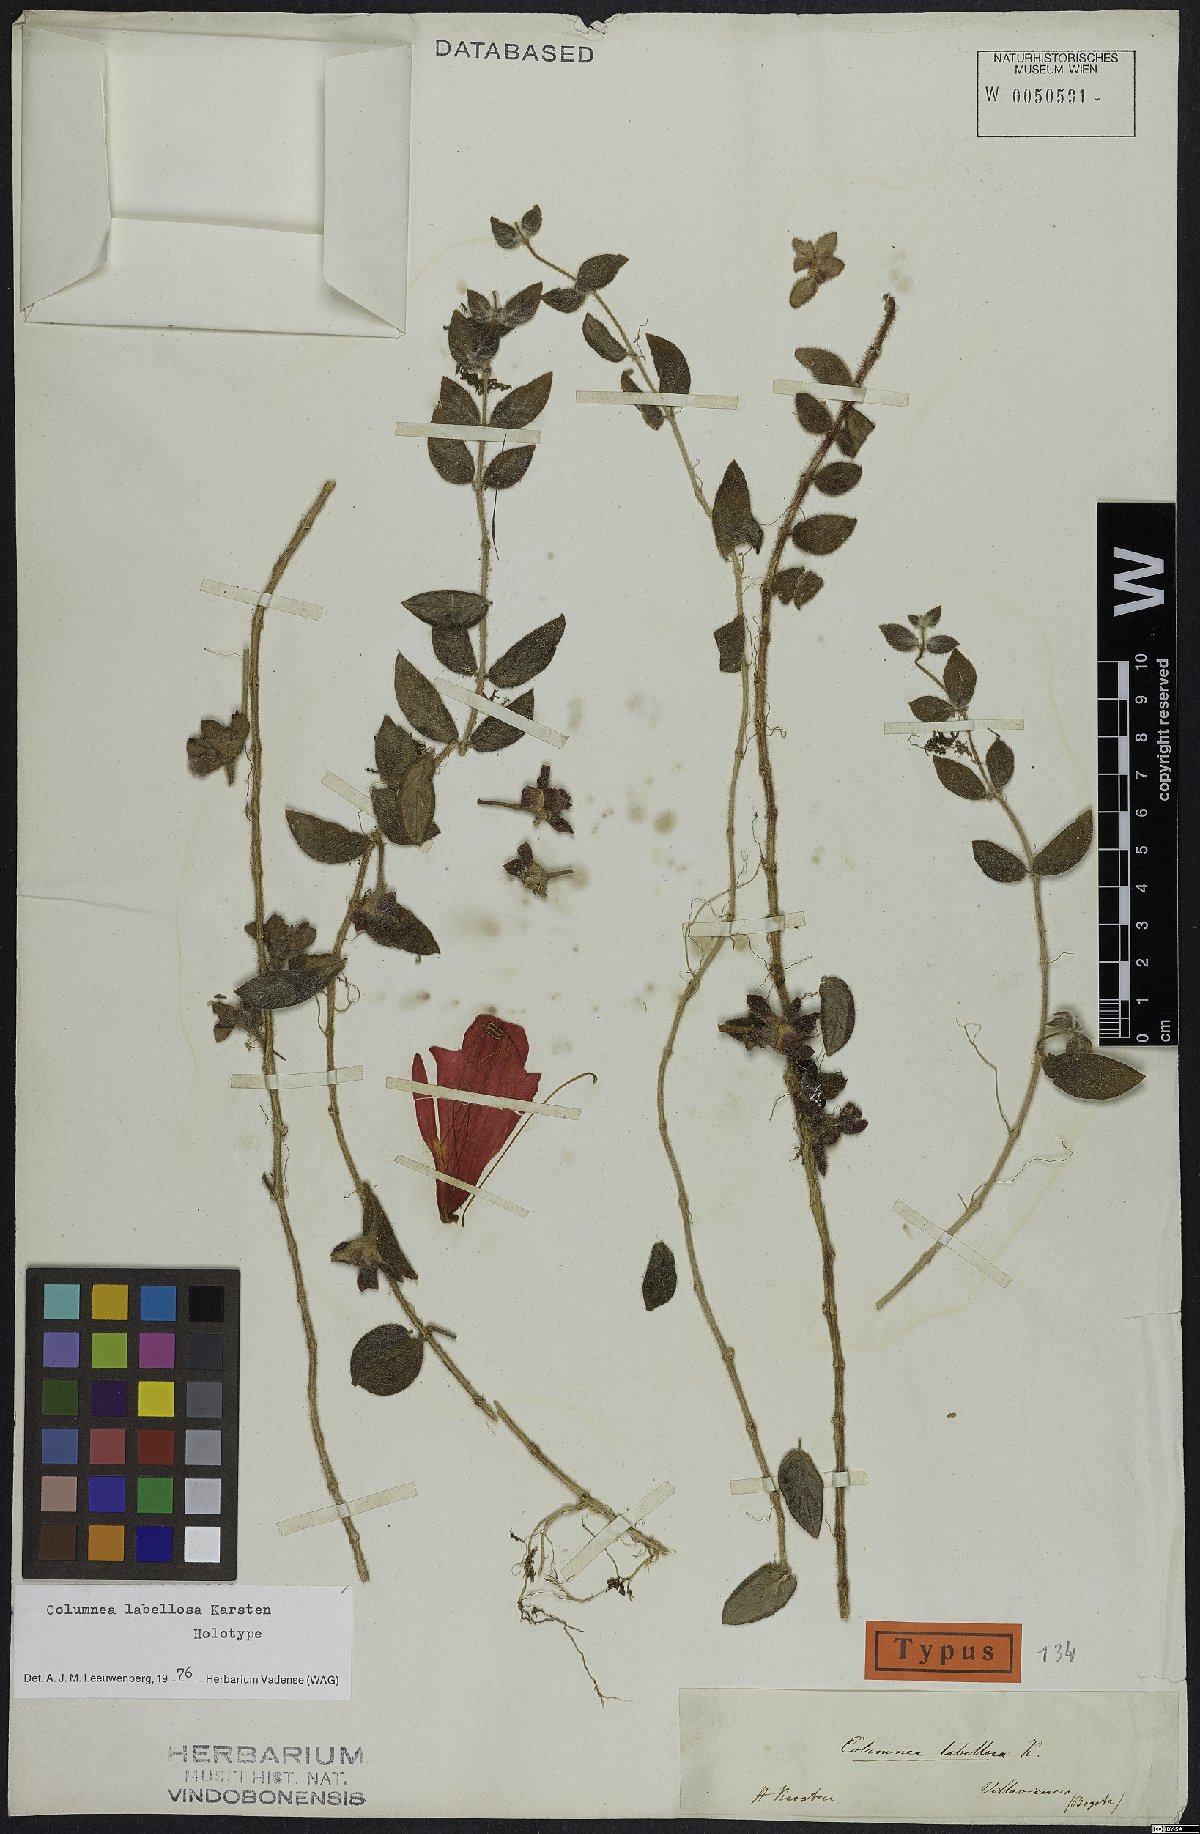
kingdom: Plantae
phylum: Tracheophyta
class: Magnoliopsida
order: Lamiales
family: Gesneriaceae
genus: Columnea
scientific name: Columnea labellosa
